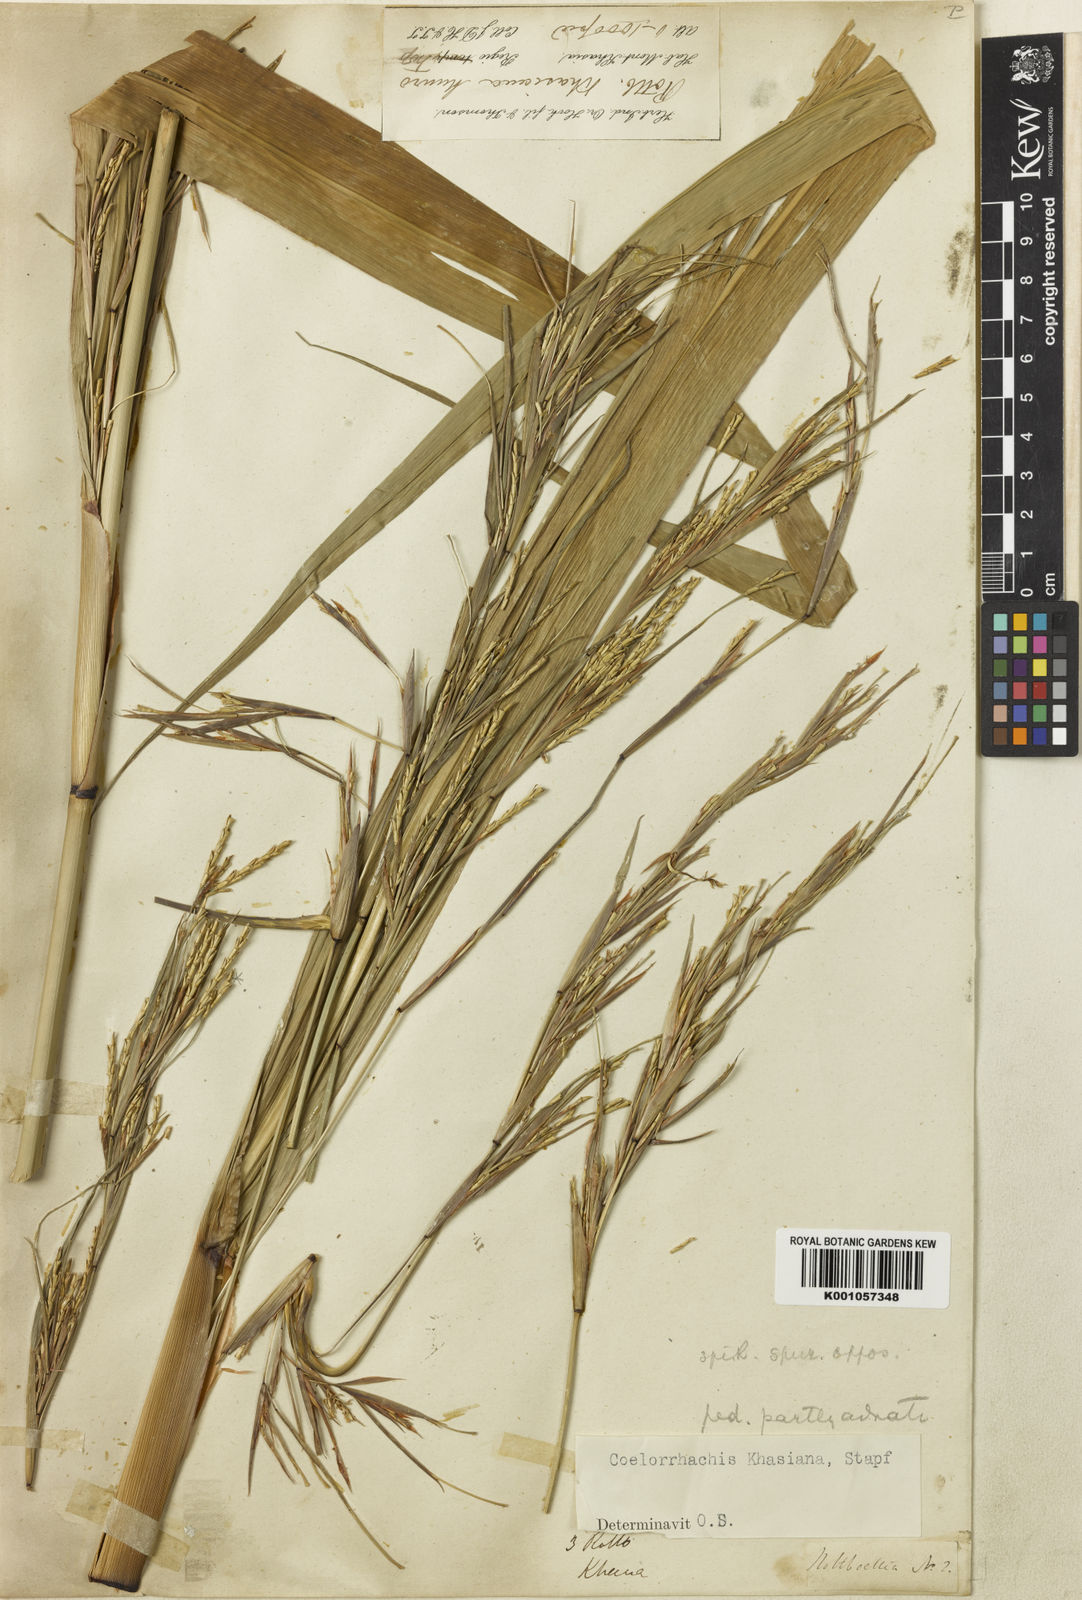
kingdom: Plantae
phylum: Tracheophyta
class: Liliopsida
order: Poales
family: Poaceae
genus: Rottboellia
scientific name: Rottboellia striata
